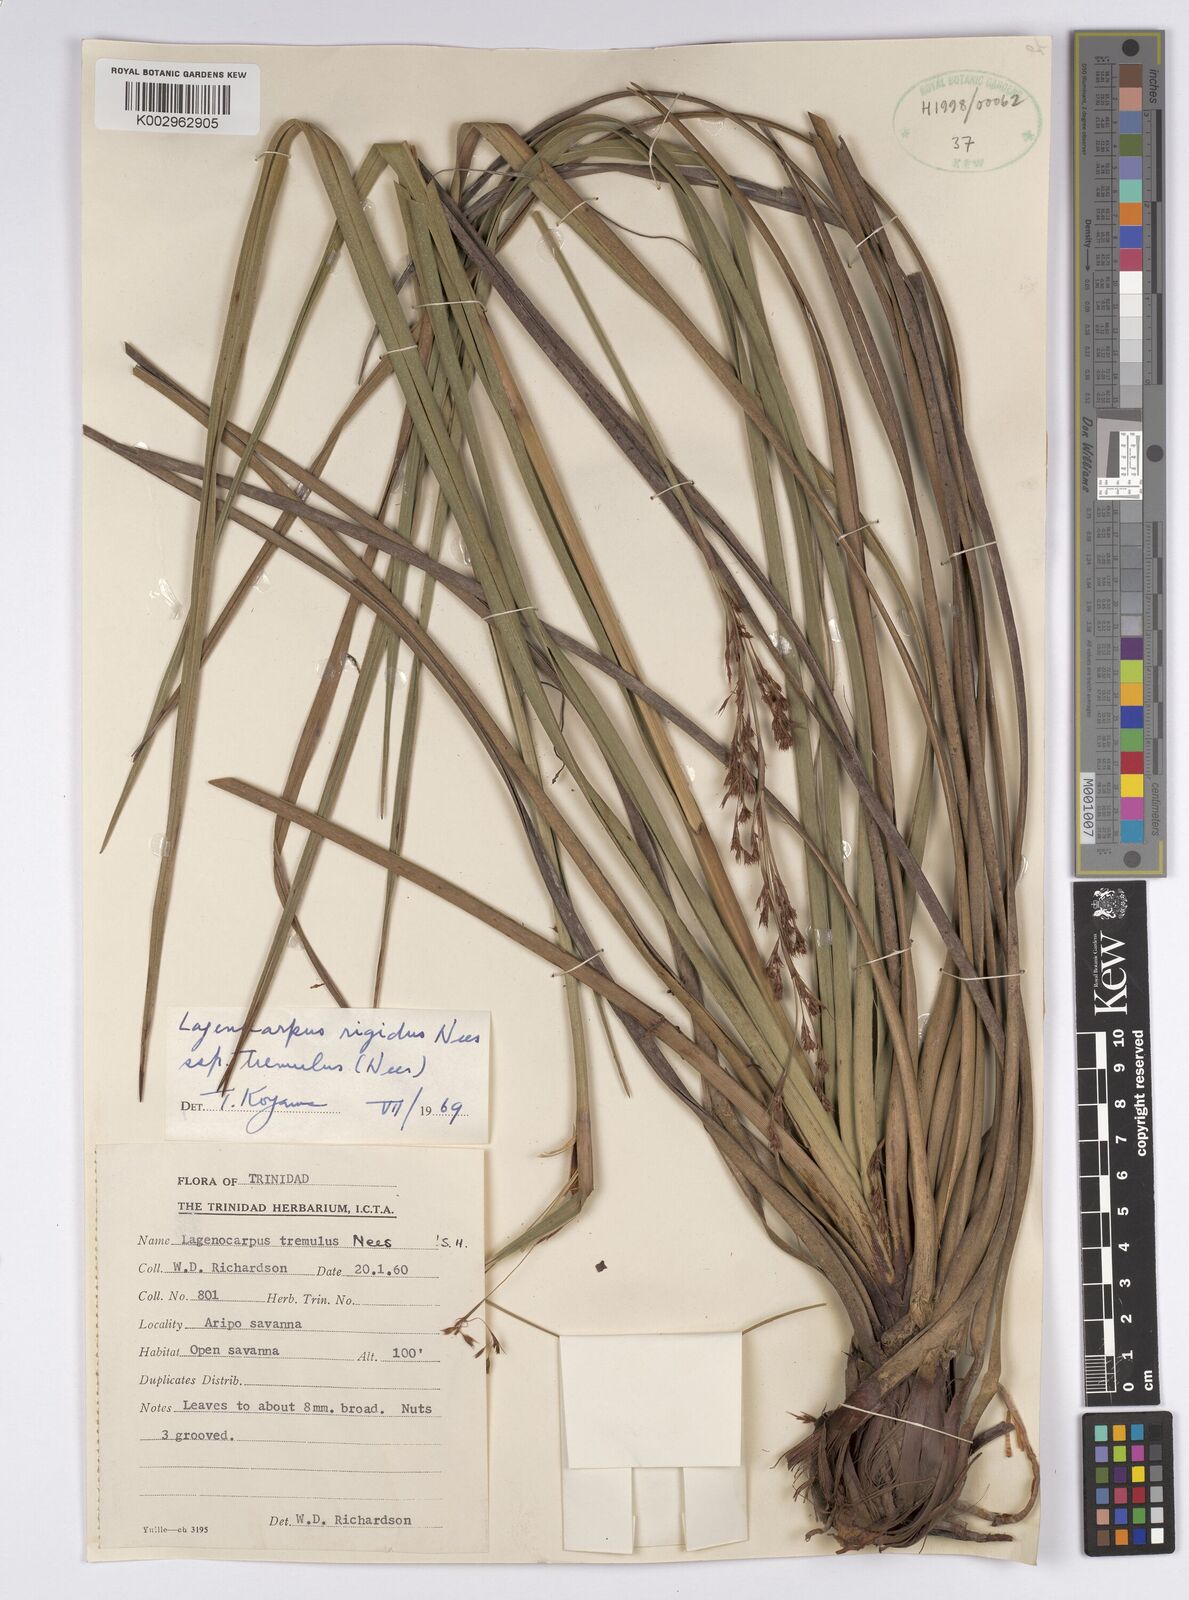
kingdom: Plantae
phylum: Tracheophyta
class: Liliopsida
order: Poales
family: Cyperaceae
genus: Lagenocarpus
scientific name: Lagenocarpus rigidus
